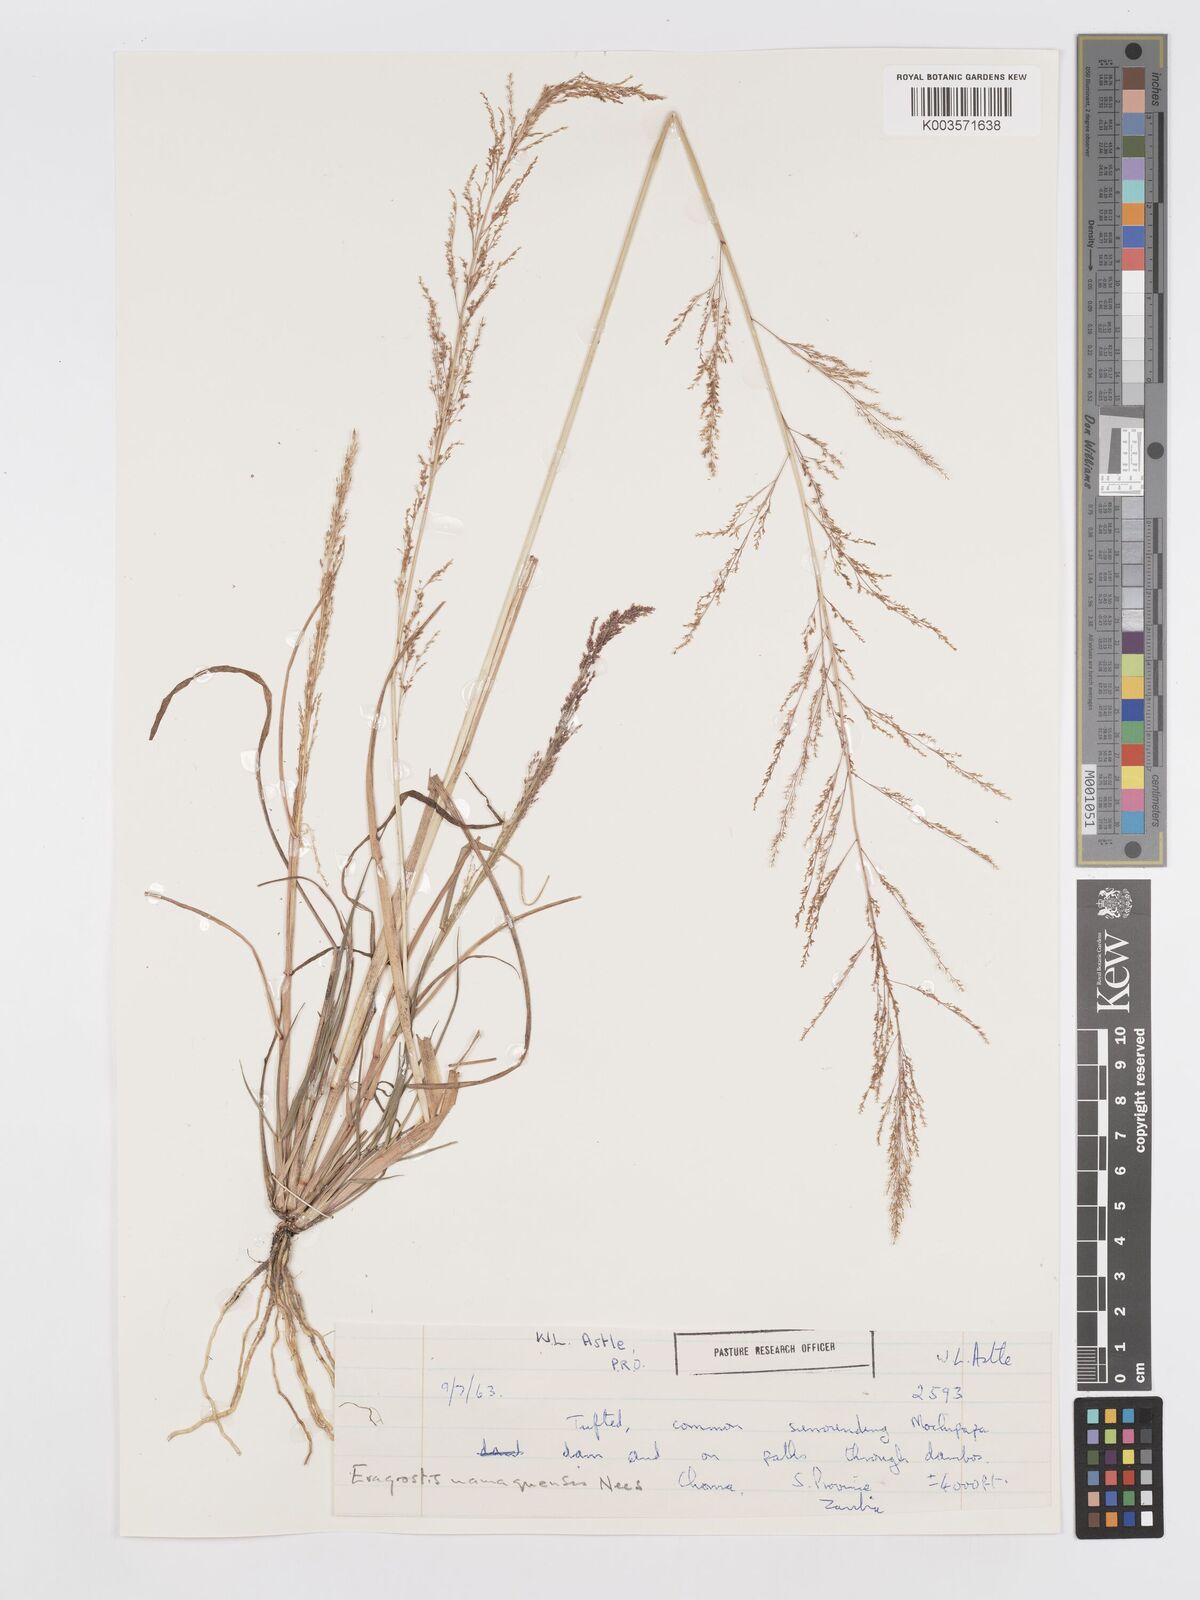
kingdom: Plantae
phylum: Tracheophyta
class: Liliopsida
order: Poales
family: Poaceae
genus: Eragrostis
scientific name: Eragrostis japonica
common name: Pond lovegrass
